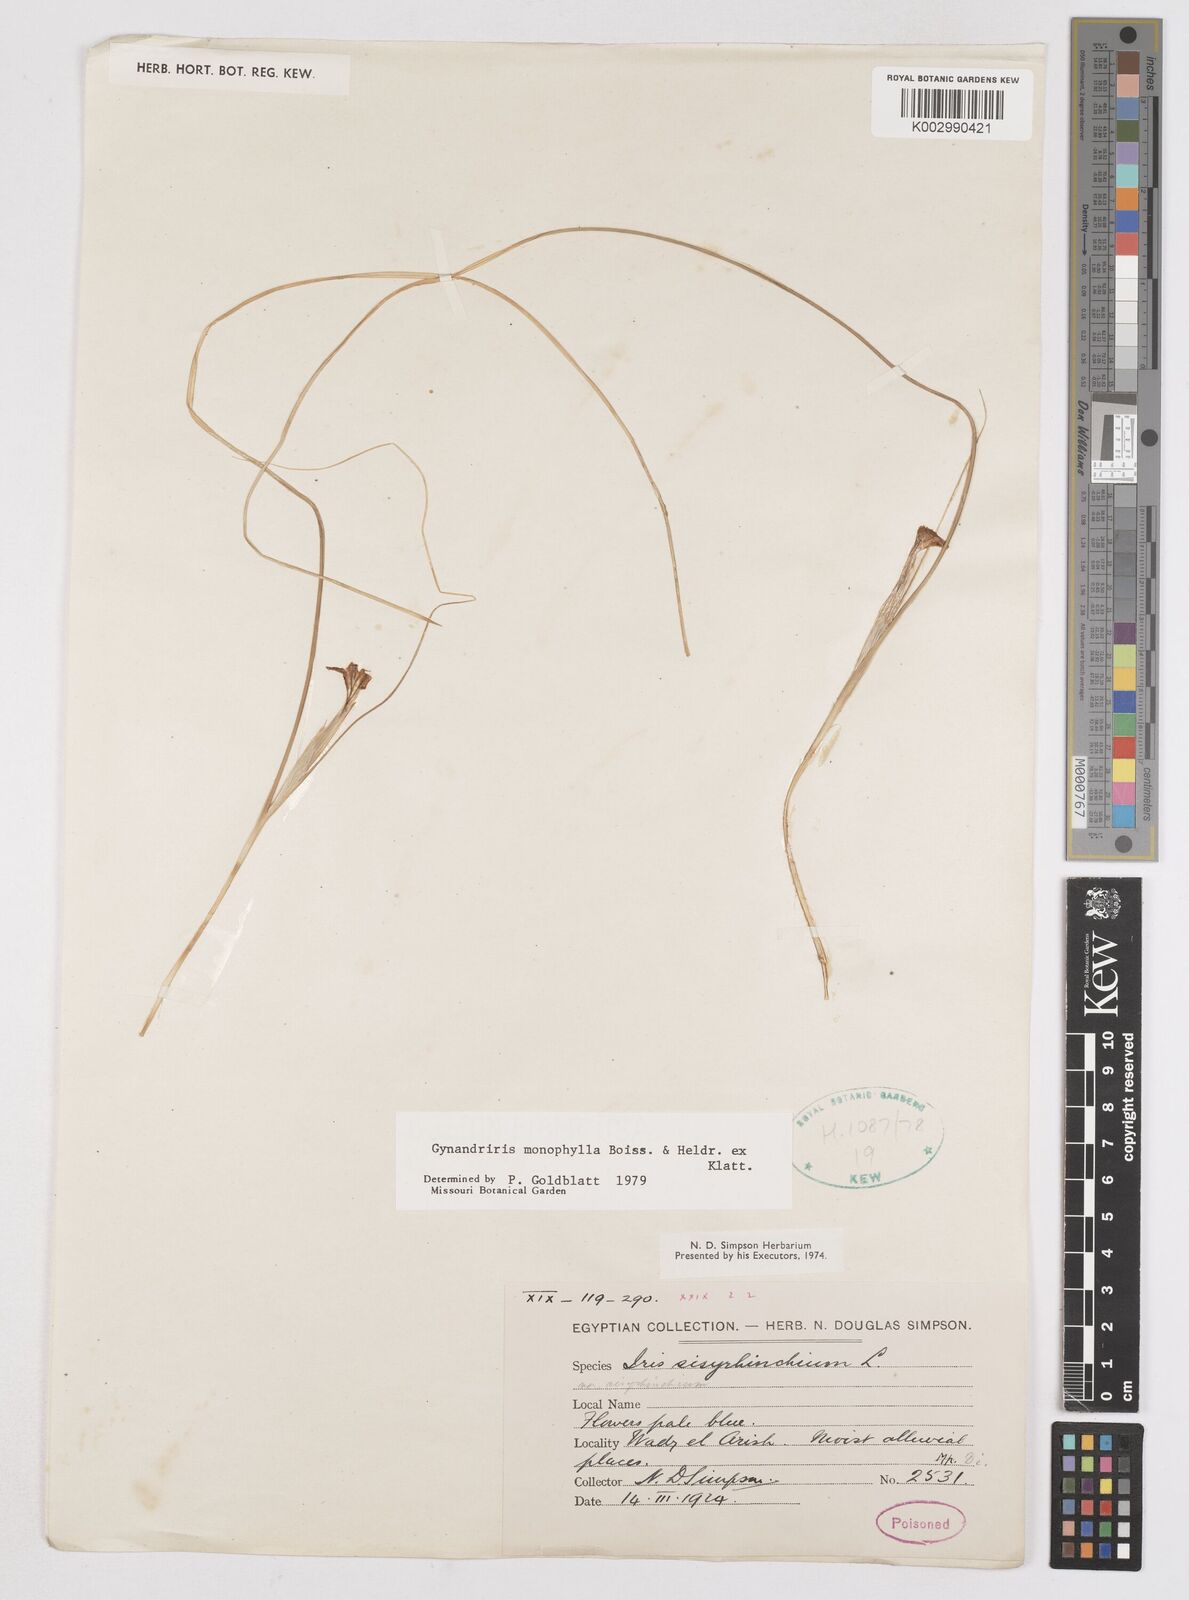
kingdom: Plantae
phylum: Tracheophyta
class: Liliopsida
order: Asparagales
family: Iridaceae
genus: Moraea
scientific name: Moraea
